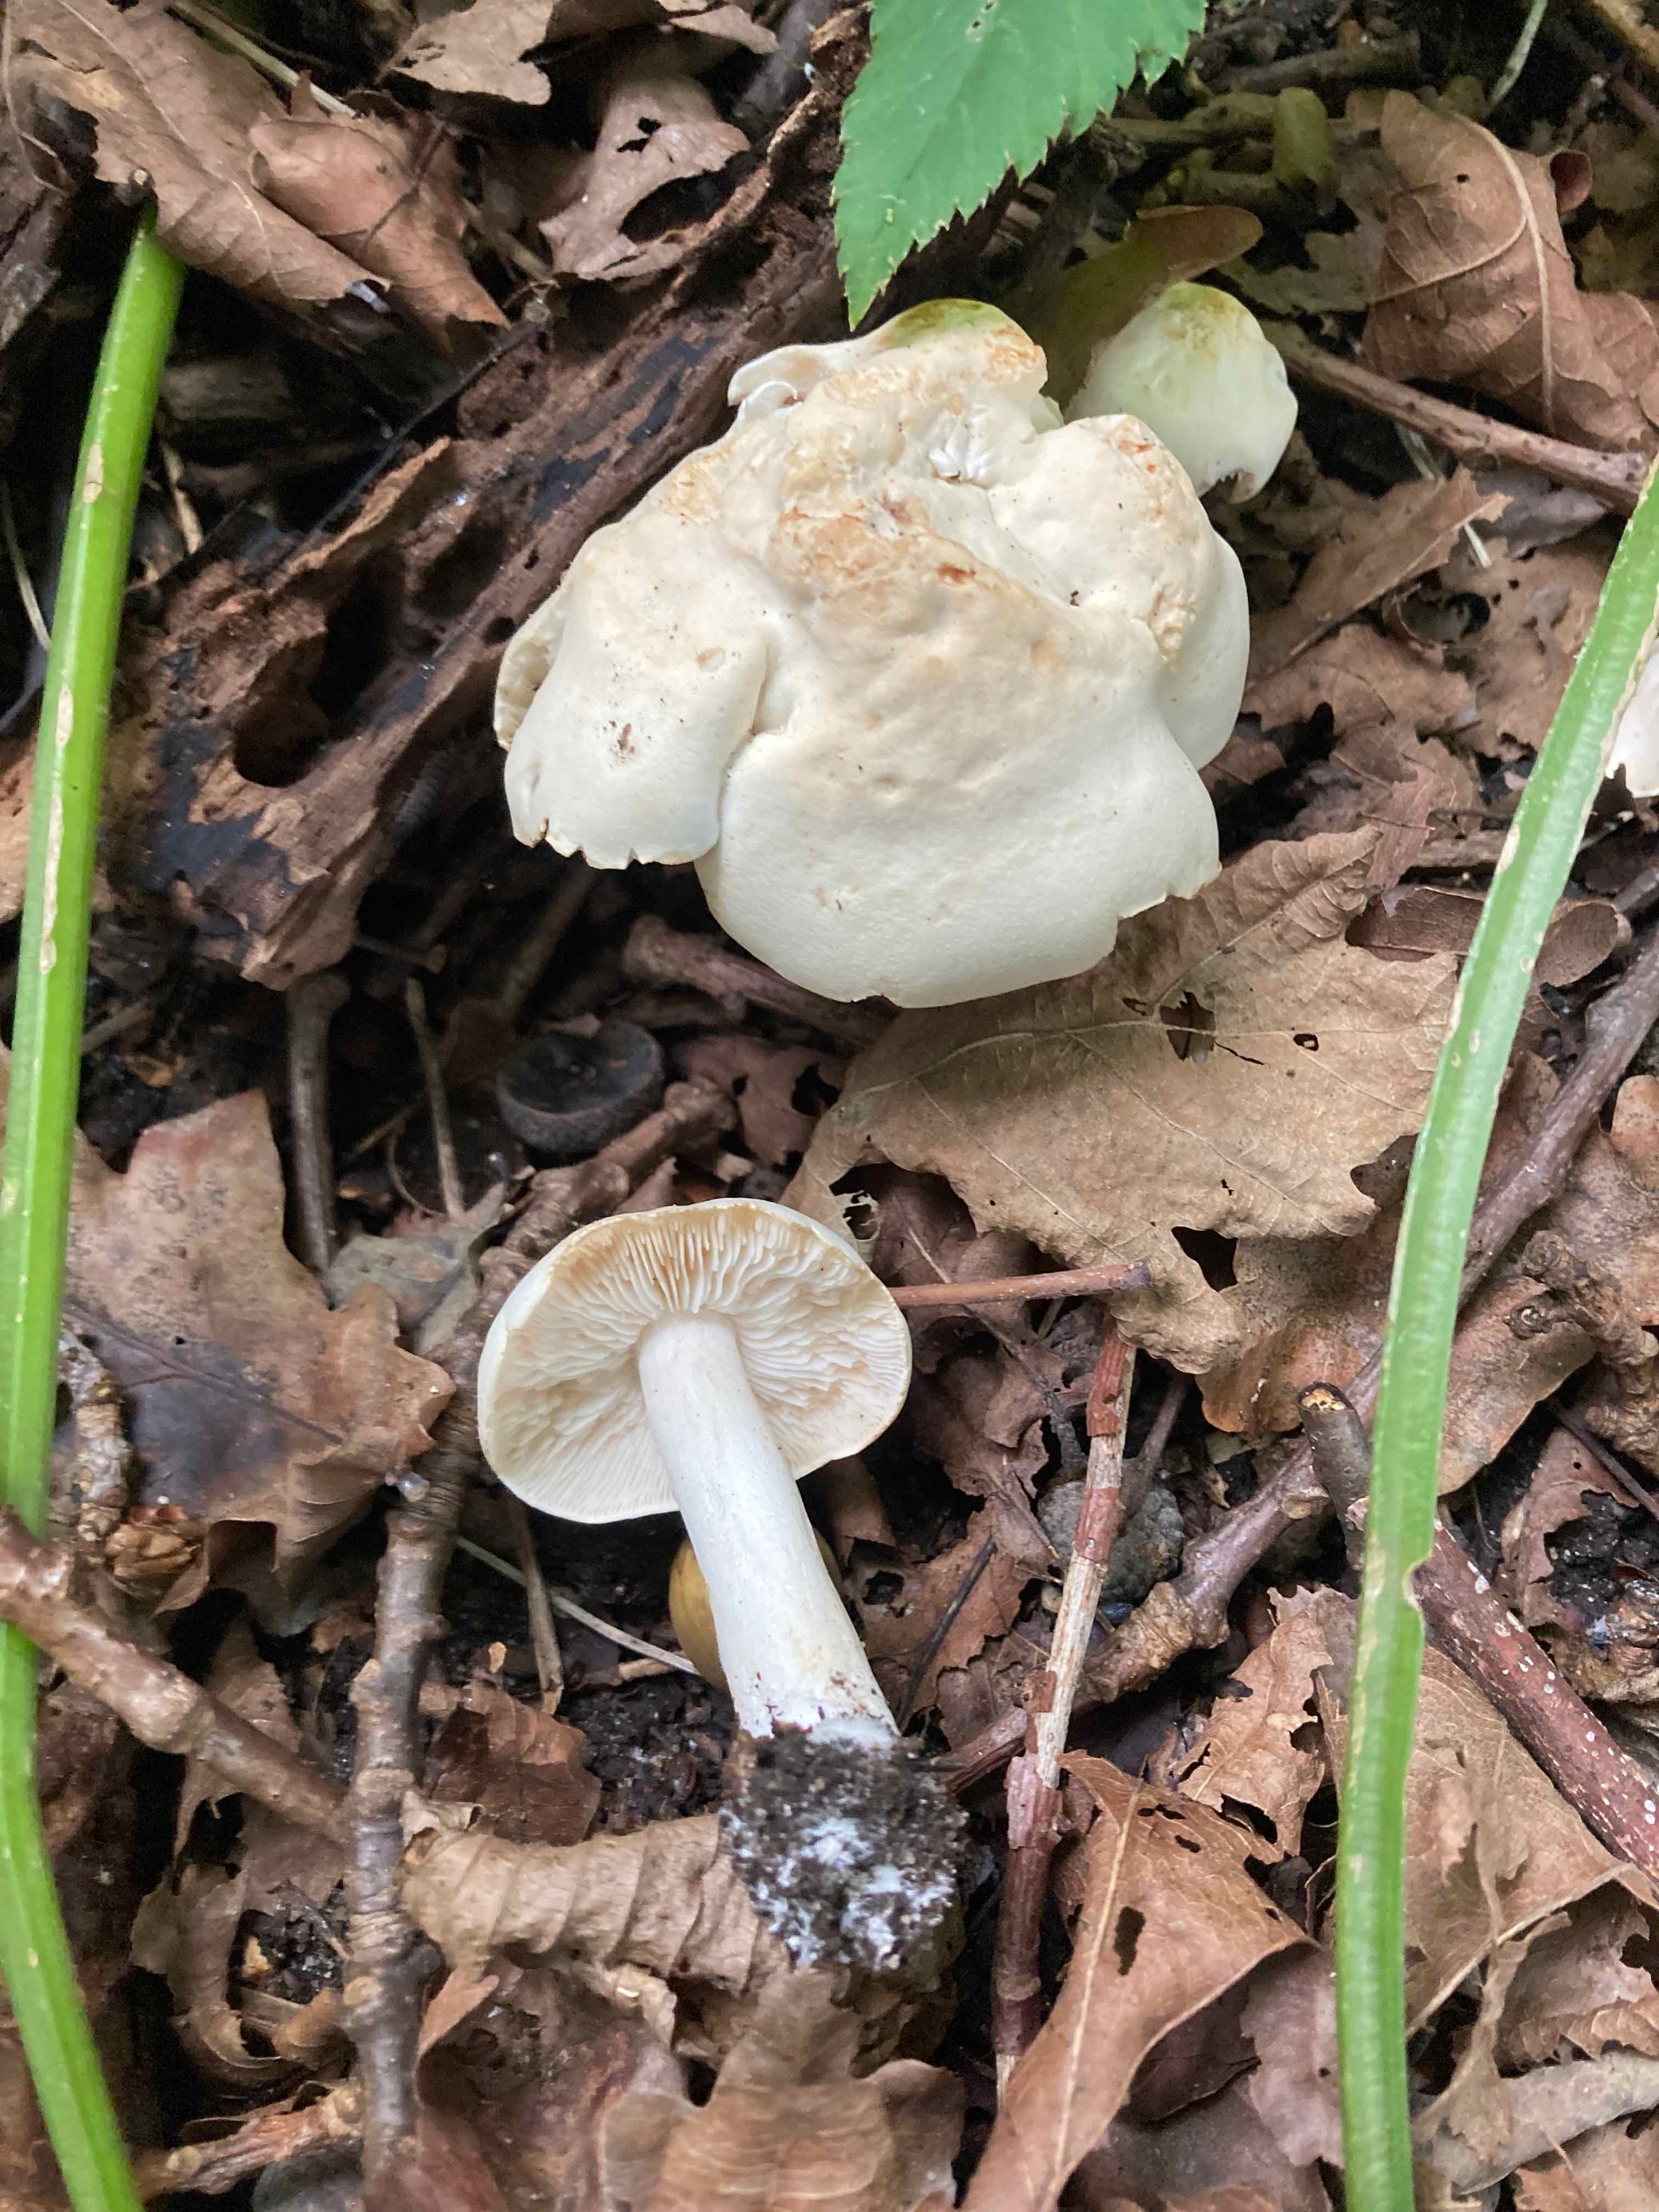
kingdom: Fungi
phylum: Basidiomycota
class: Agaricomycetes
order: Agaricales
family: Tricholomataceae
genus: Tricholoma
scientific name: Tricholoma lascivum
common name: stinkende ridderhat
